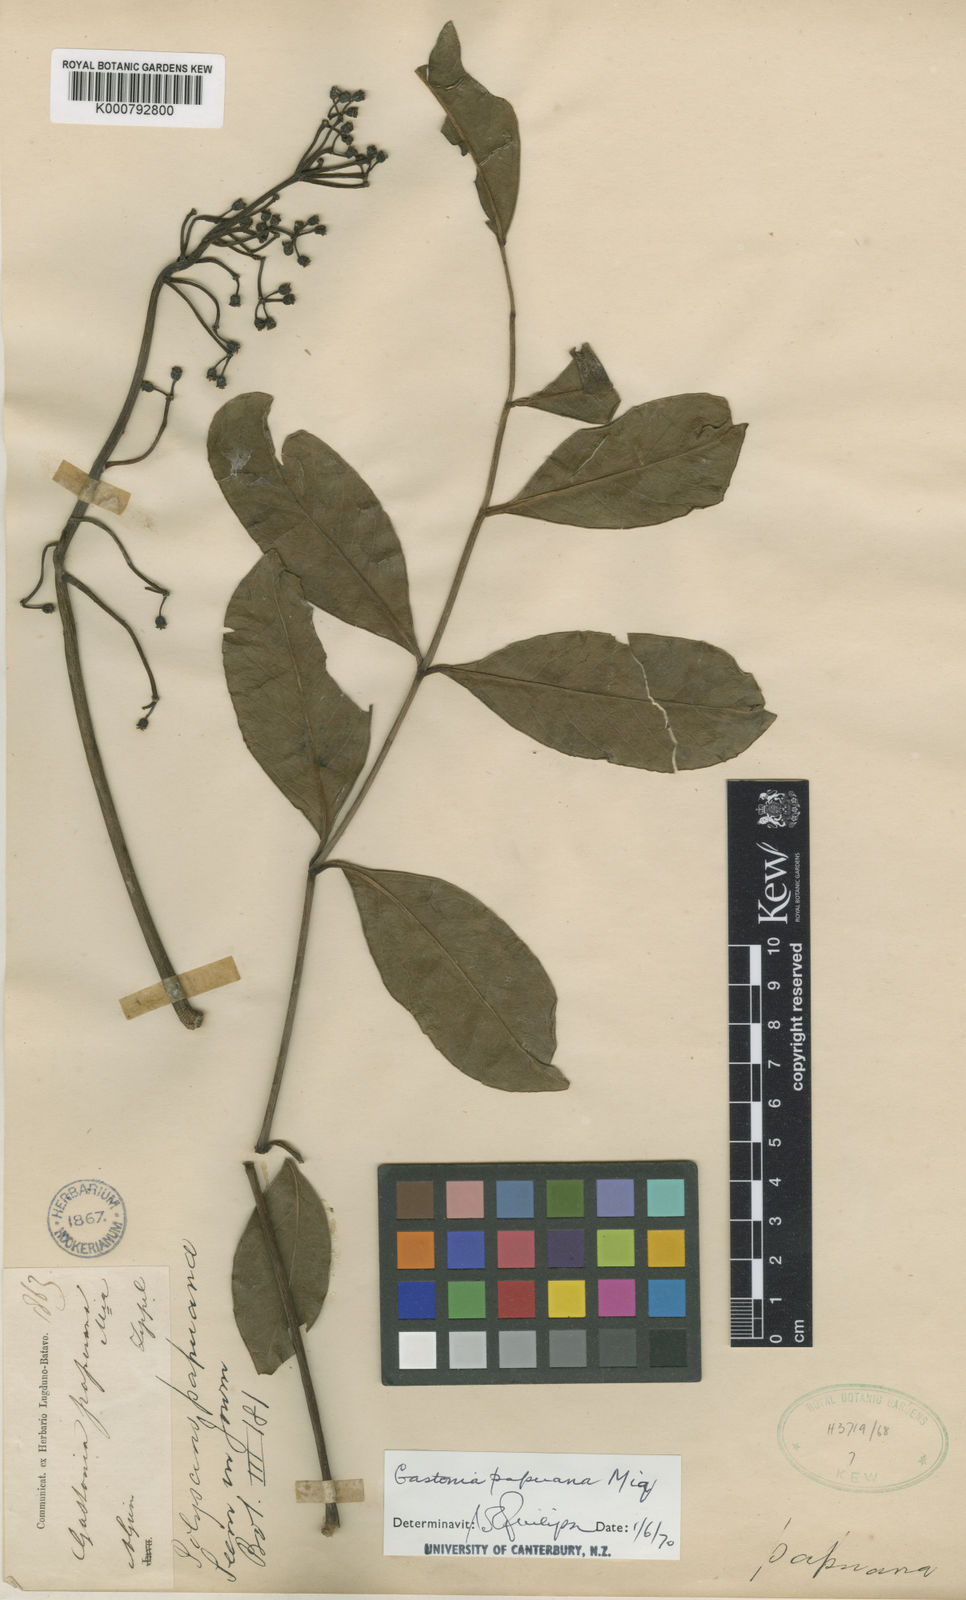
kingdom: Plantae
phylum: Tracheophyta
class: Magnoliopsida
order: Apiales
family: Araliaceae
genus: Polyscias
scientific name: Polyscias serratifolia
